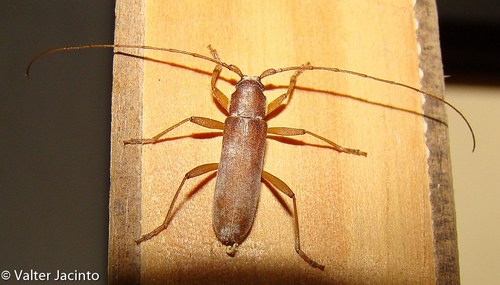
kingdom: Animalia
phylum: Arthropoda
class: Insecta
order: Coleoptera
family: Cerambycidae
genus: Stromatium
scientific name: Stromatium auratum
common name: Long-horned beetle
